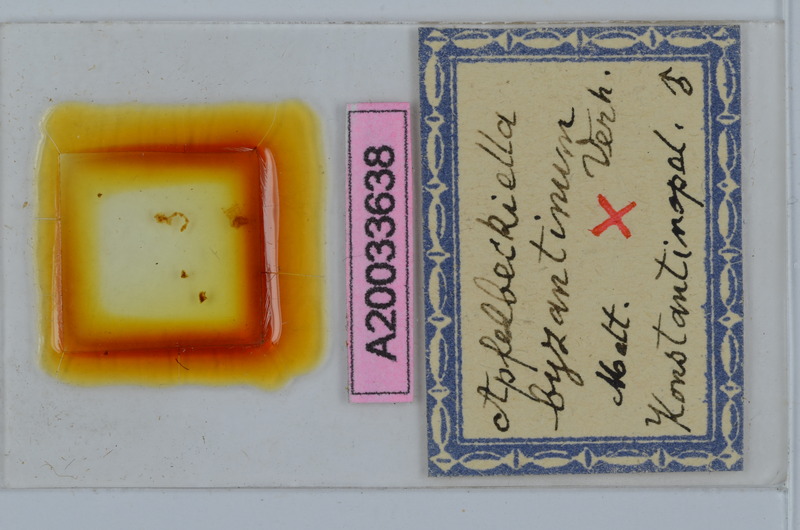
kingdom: Animalia
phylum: Arthropoda
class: Diplopoda
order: Julida
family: Julidae
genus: Apfelbeckiella
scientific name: Apfelbeckiella byzantina
